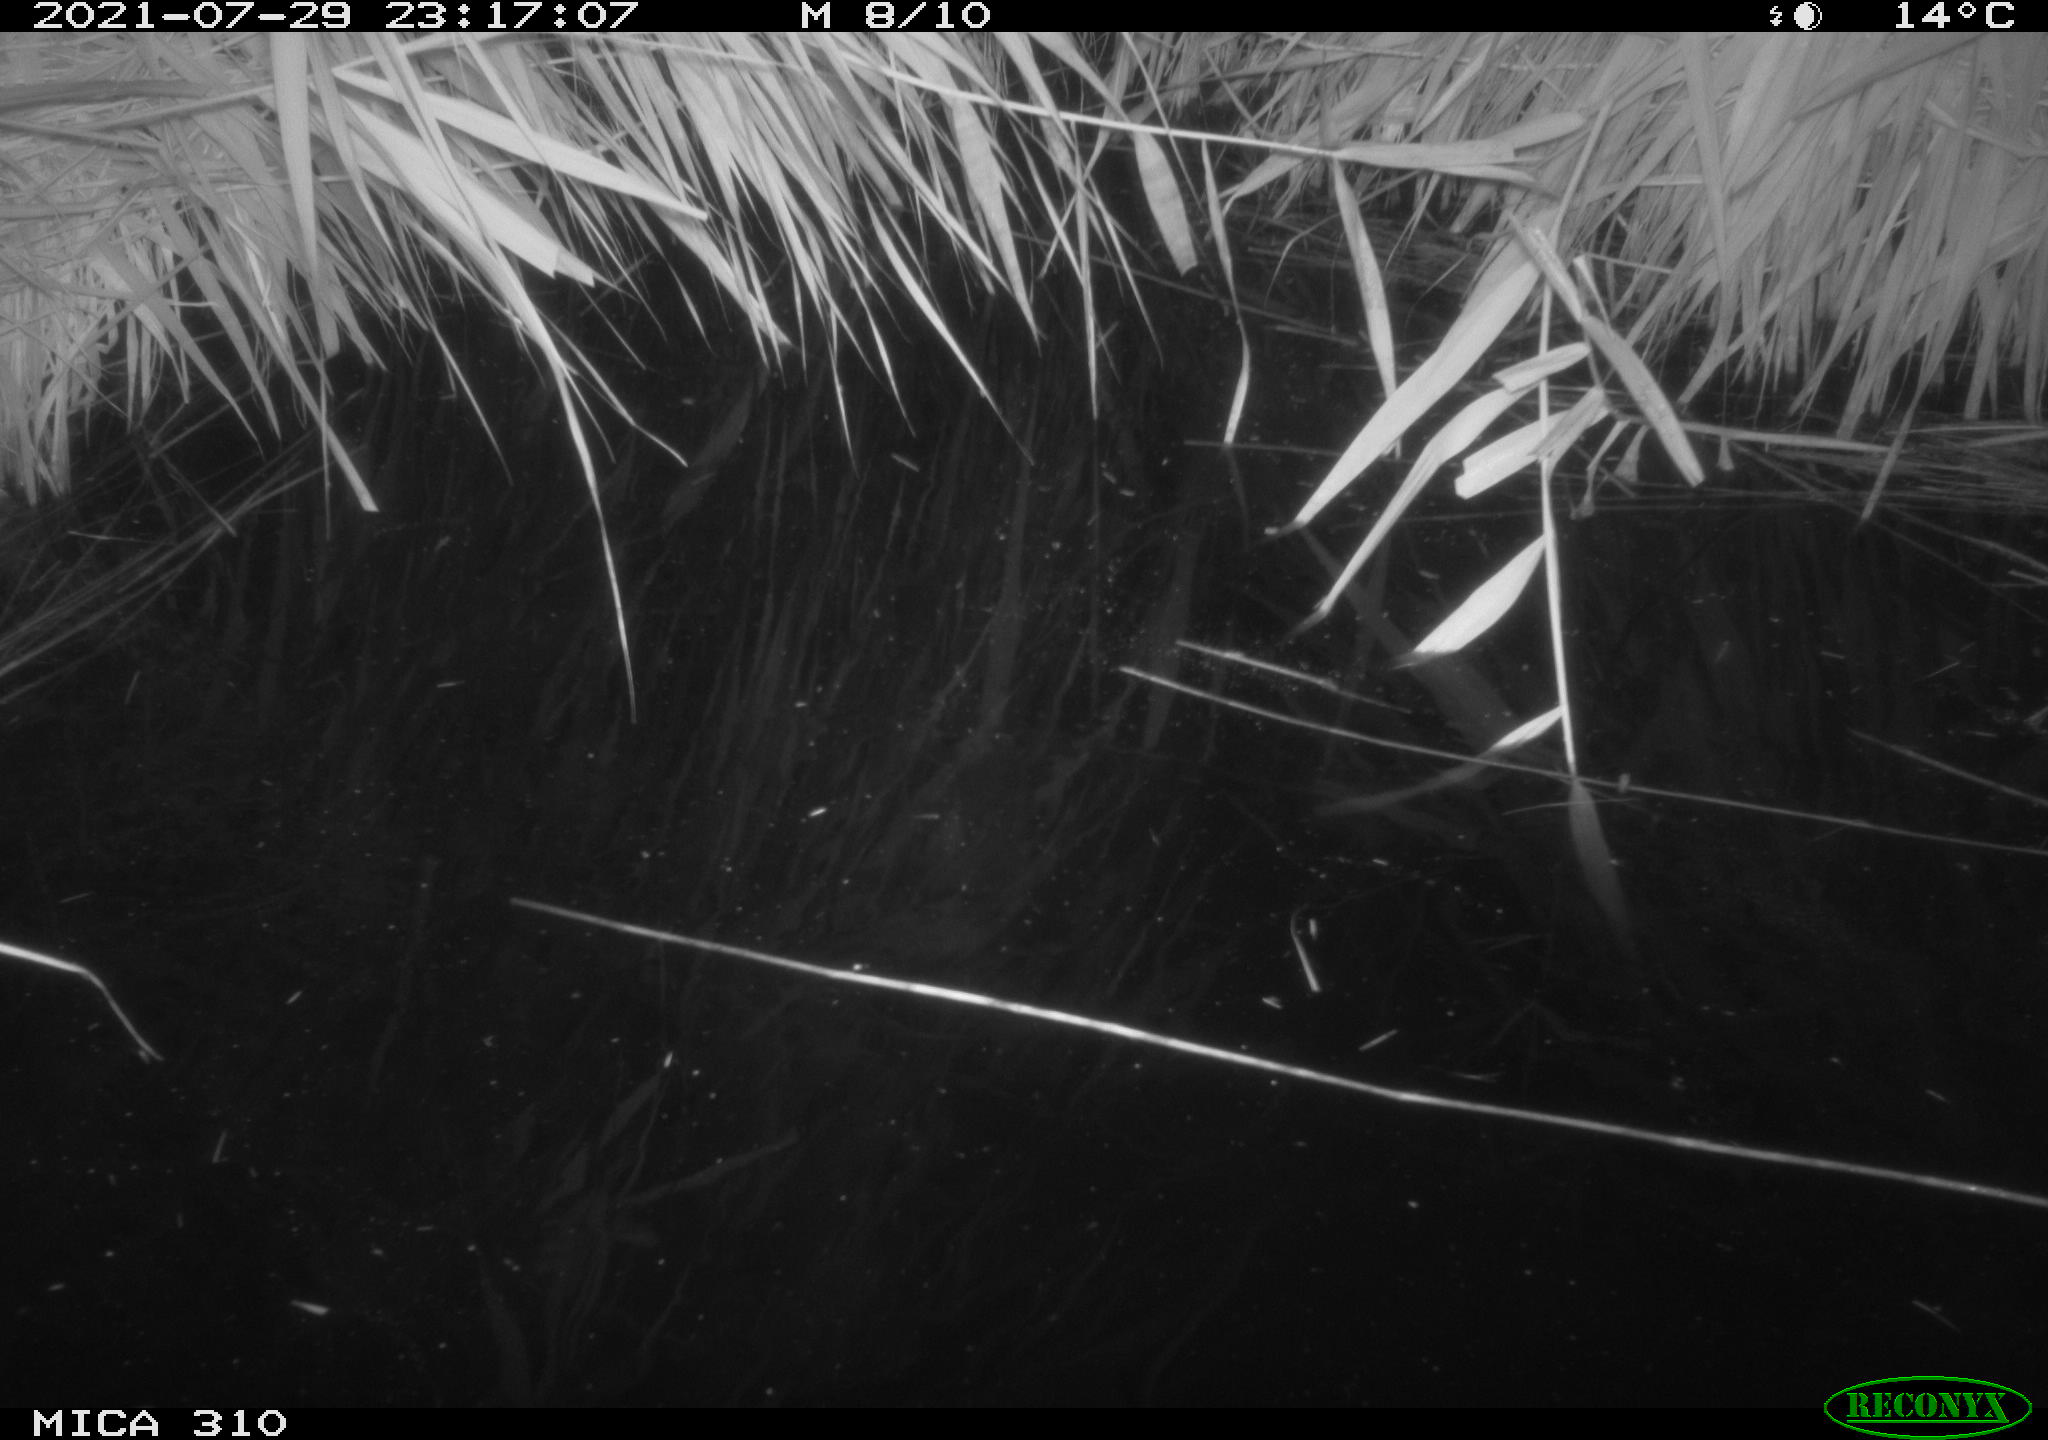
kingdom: Animalia
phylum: Chordata
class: Aves
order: Anseriformes
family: Anatidae
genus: Mareca
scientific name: Mareca strepera
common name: Gadwall
